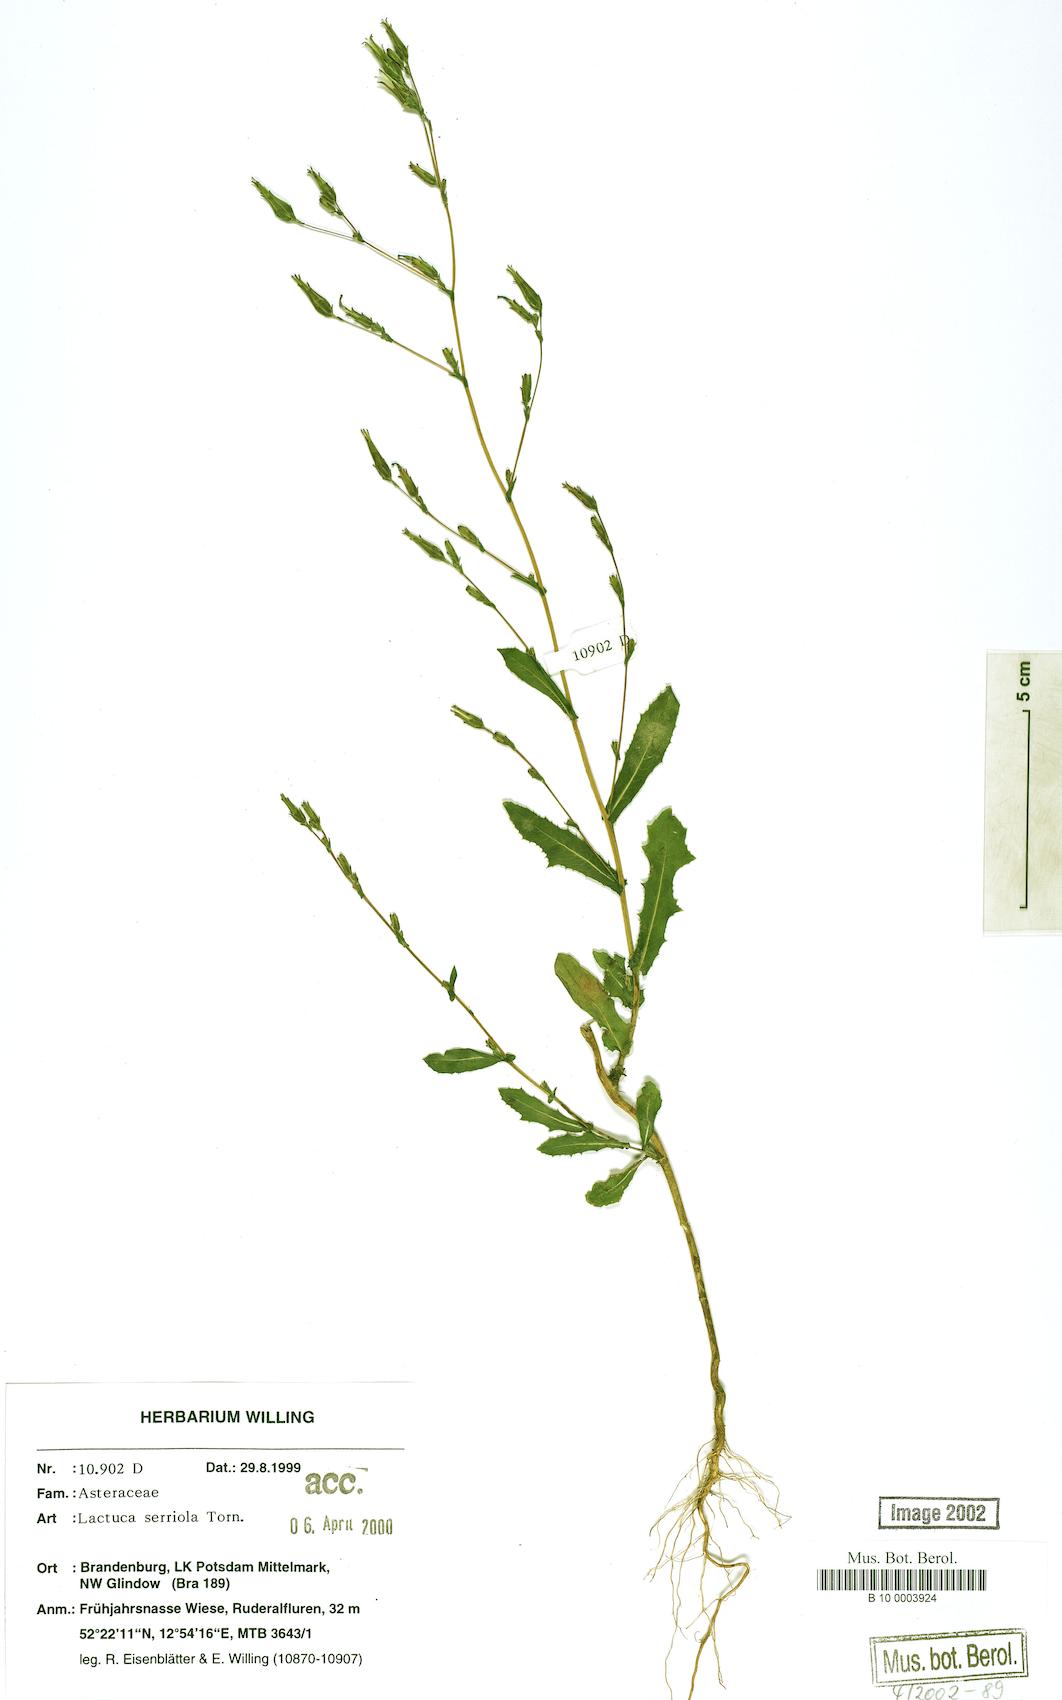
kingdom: Plantae
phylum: Tracheophyta
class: Magnoliopsida
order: Asterales
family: Asteraceae
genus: Lactuca
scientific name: Lactuca serriola
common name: Prickly lettuce
